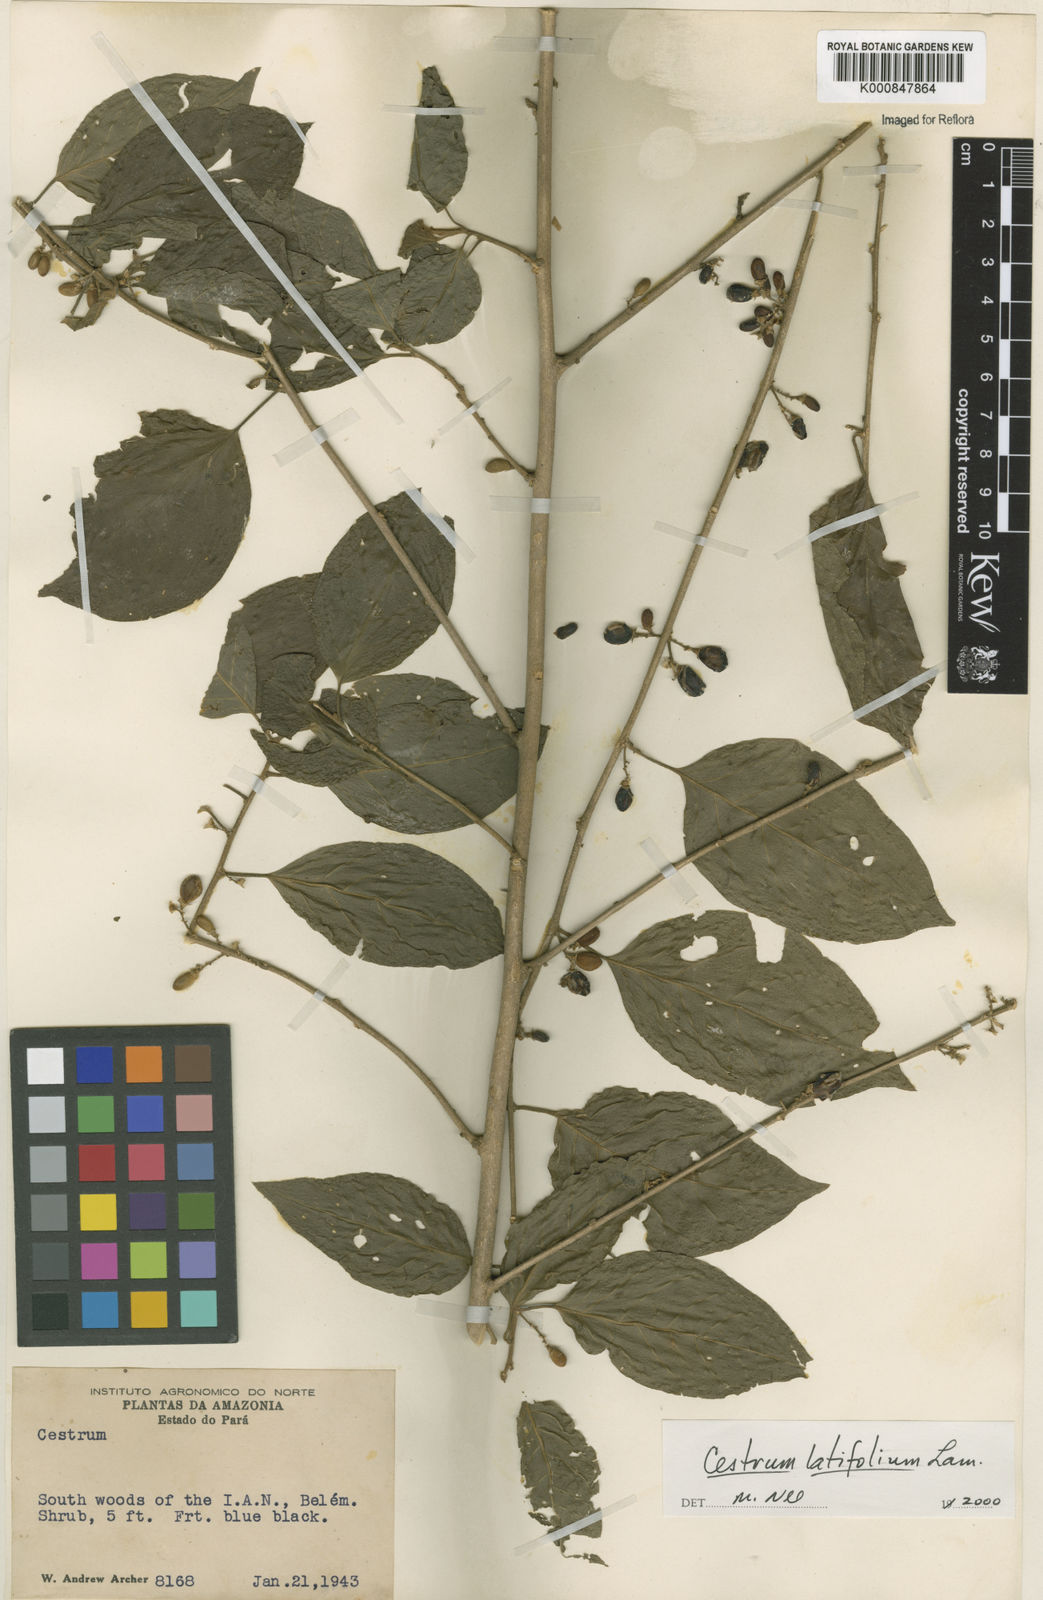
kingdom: Plantae
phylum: Tracheophyta
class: Magnoliopsida
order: Solanales
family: Solanaceae
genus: Cestrum
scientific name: Cestrum latifolium
